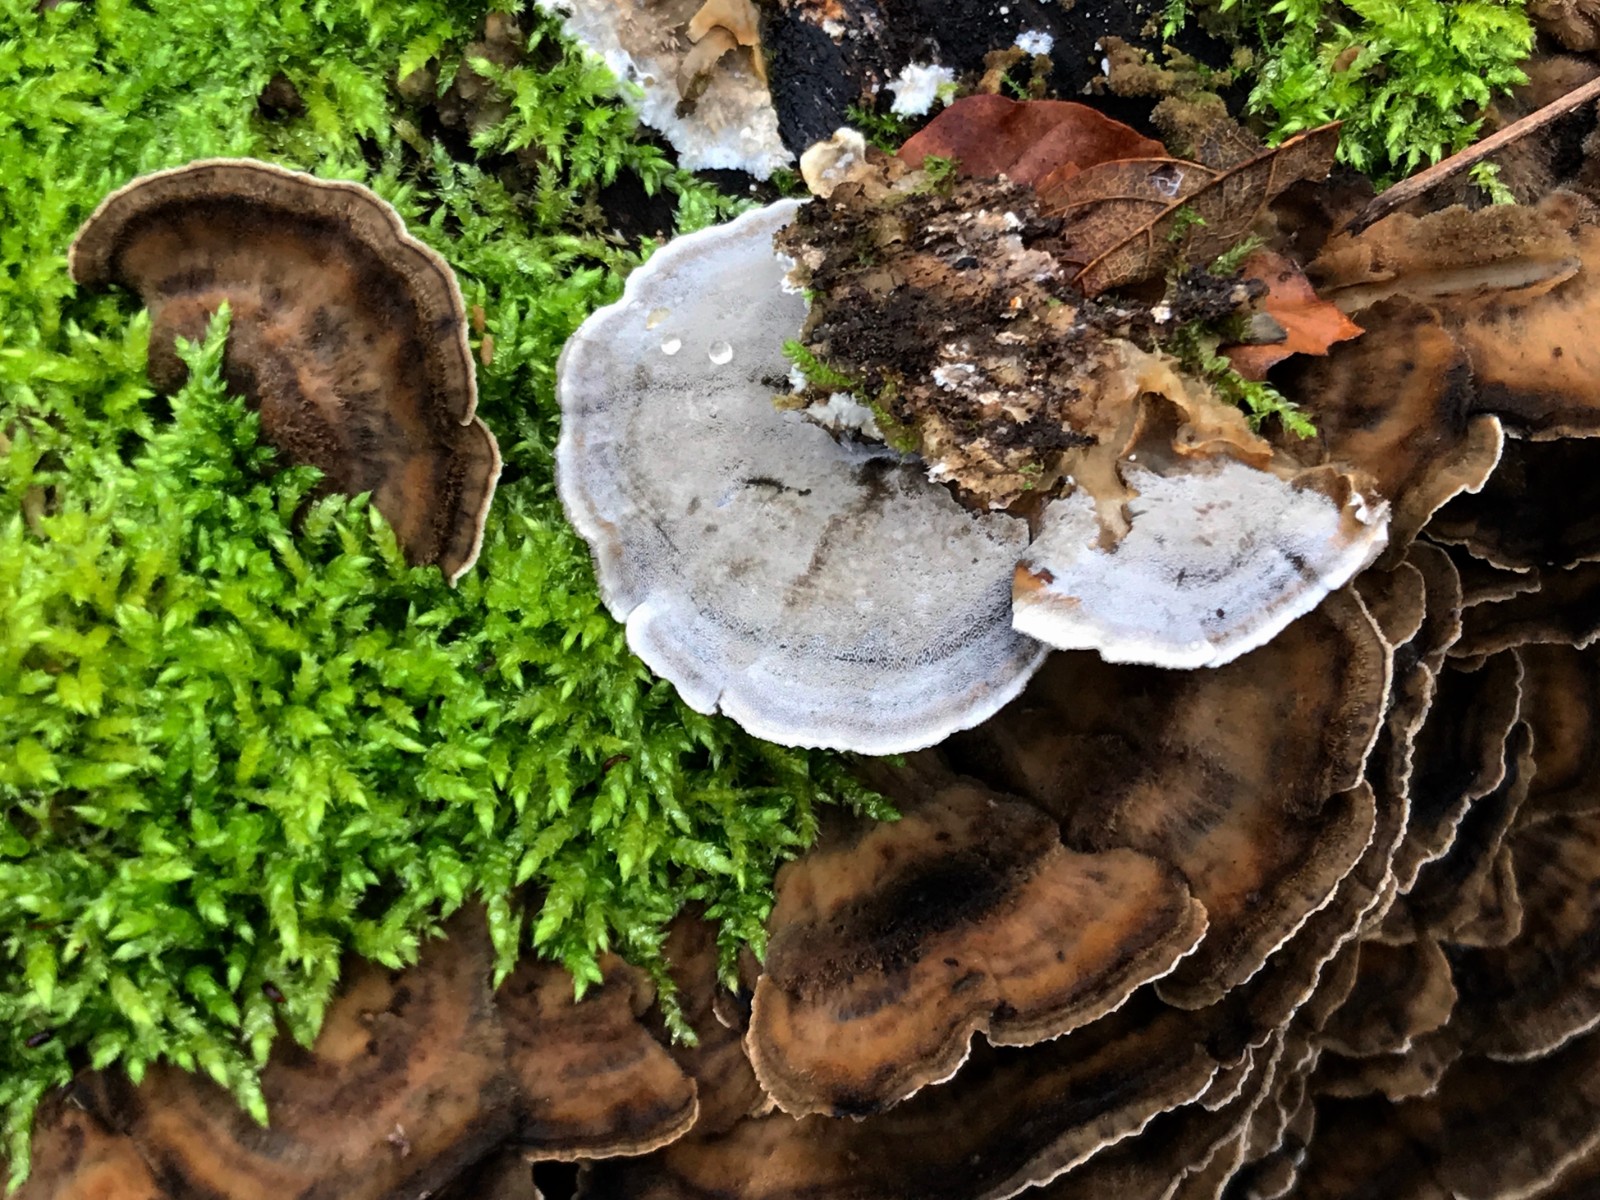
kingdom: Fungi
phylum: Basidiomycota
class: Agaricomycetes
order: Polyporales
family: Phanerochaetaceae
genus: Bjerkandera
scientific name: Bjerkandera adusta
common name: sveden sodporesvamp
